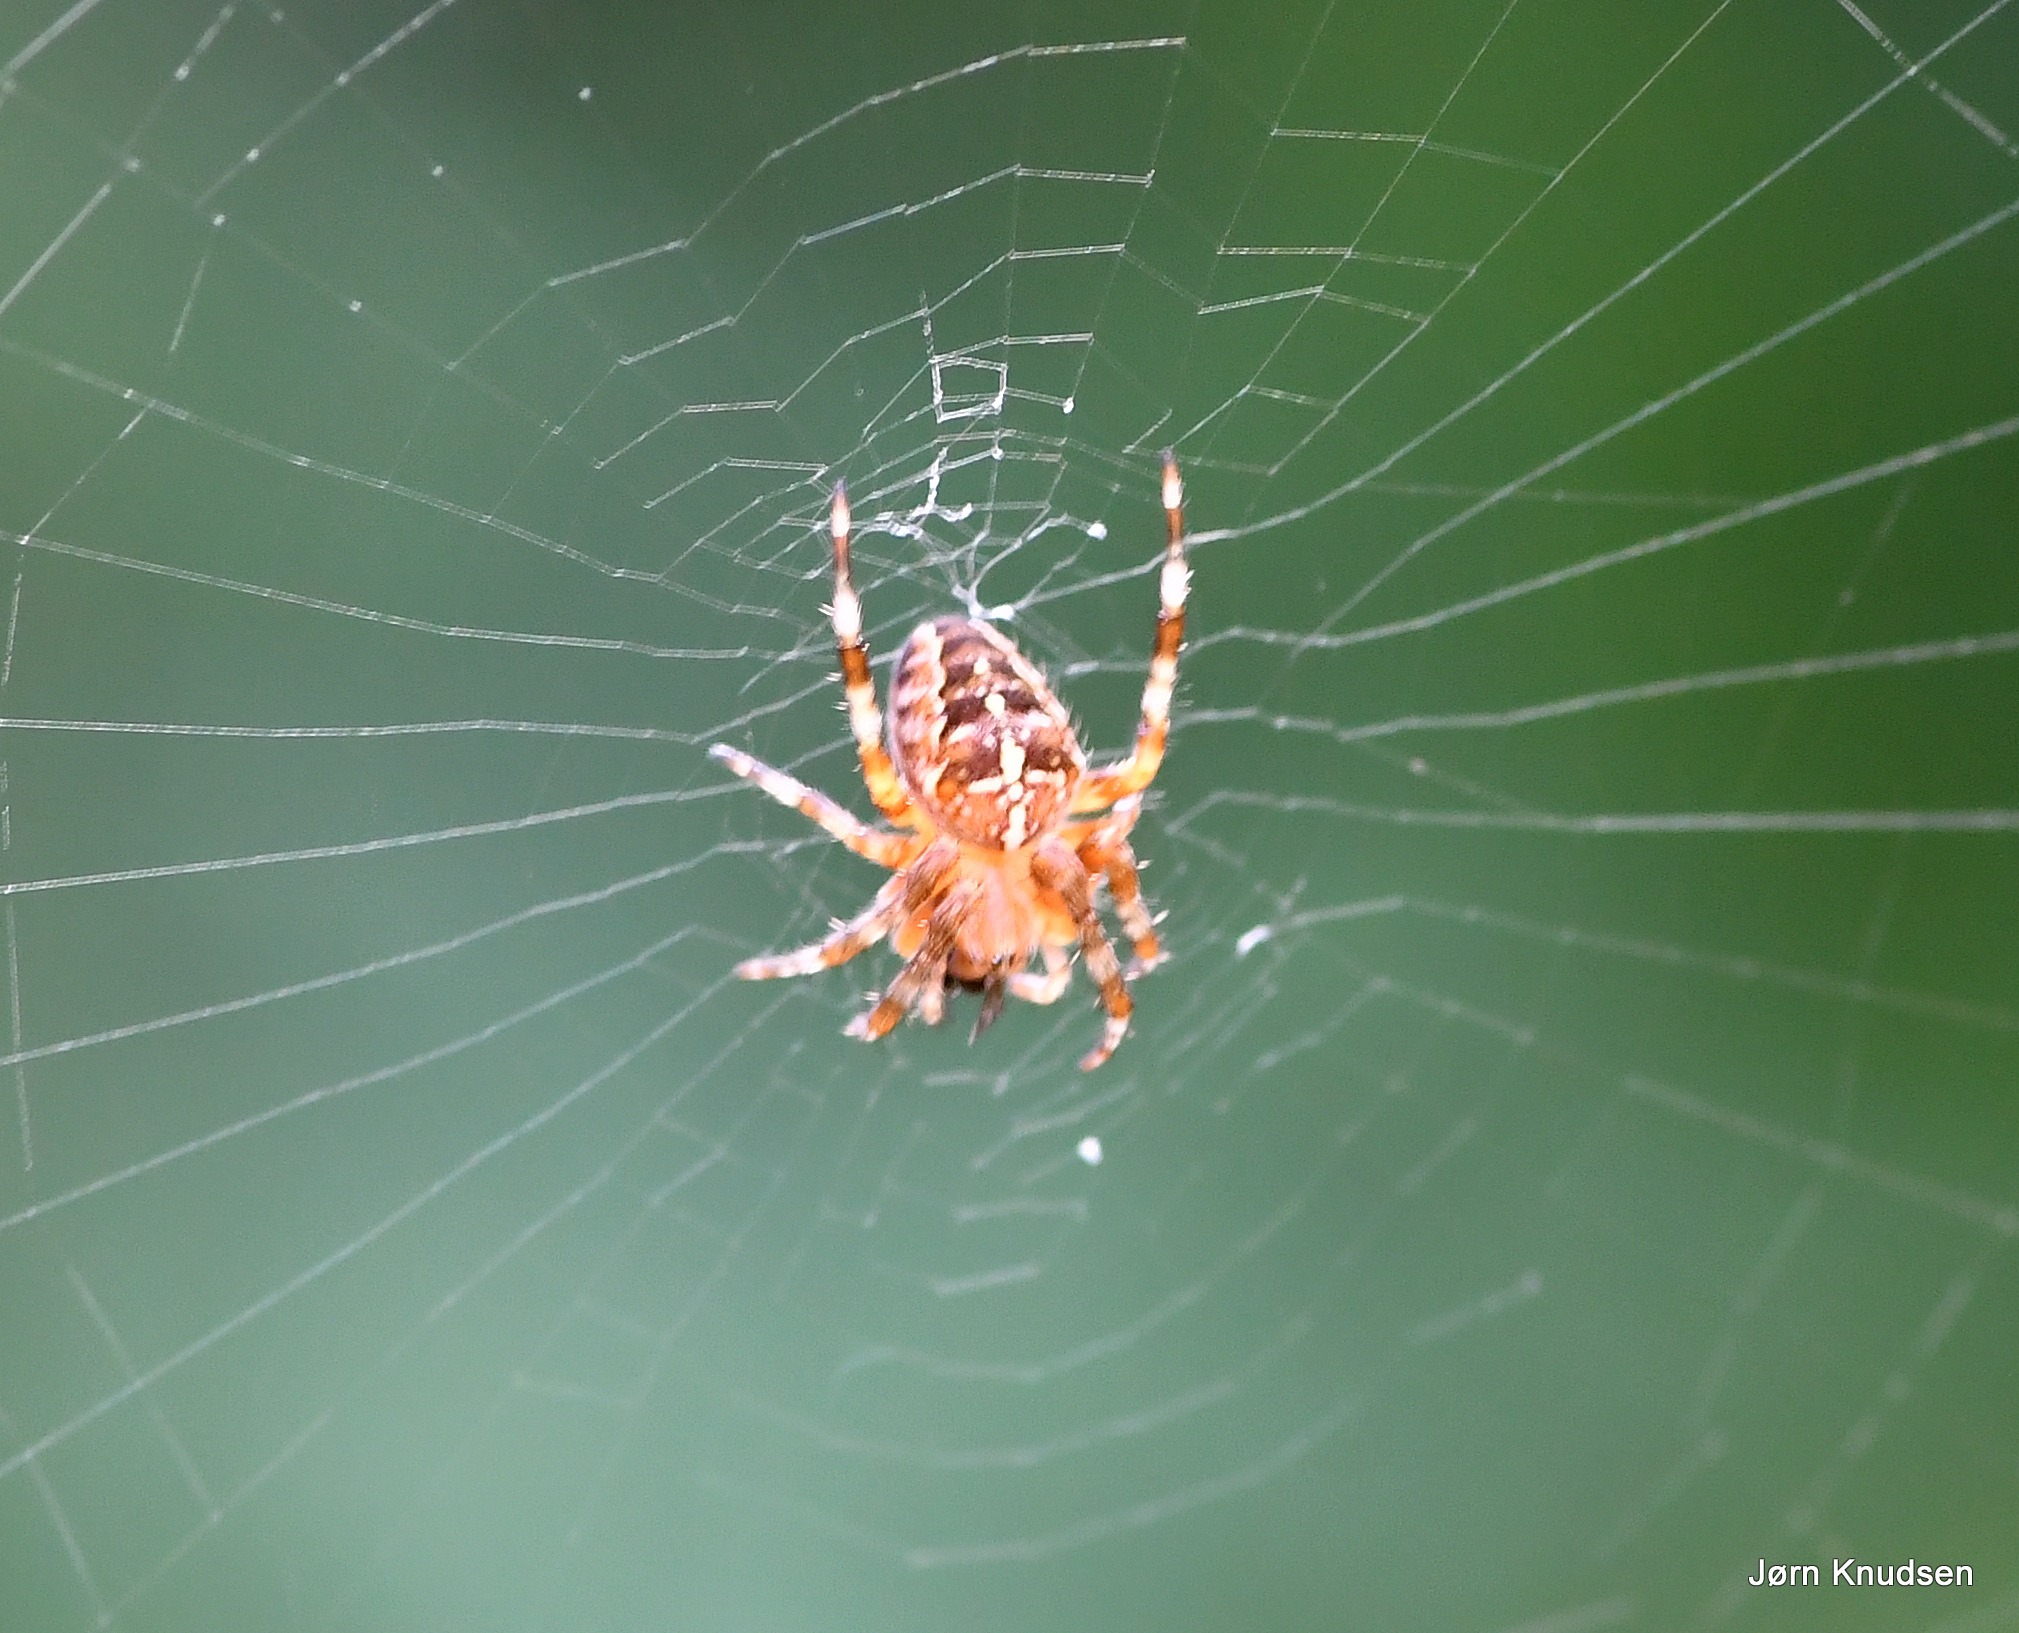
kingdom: Animalia
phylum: Arthropoda
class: Arachnida
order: Araneae
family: Araneidae
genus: Araneus
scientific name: Araneus diadematus
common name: Korsedderkop
